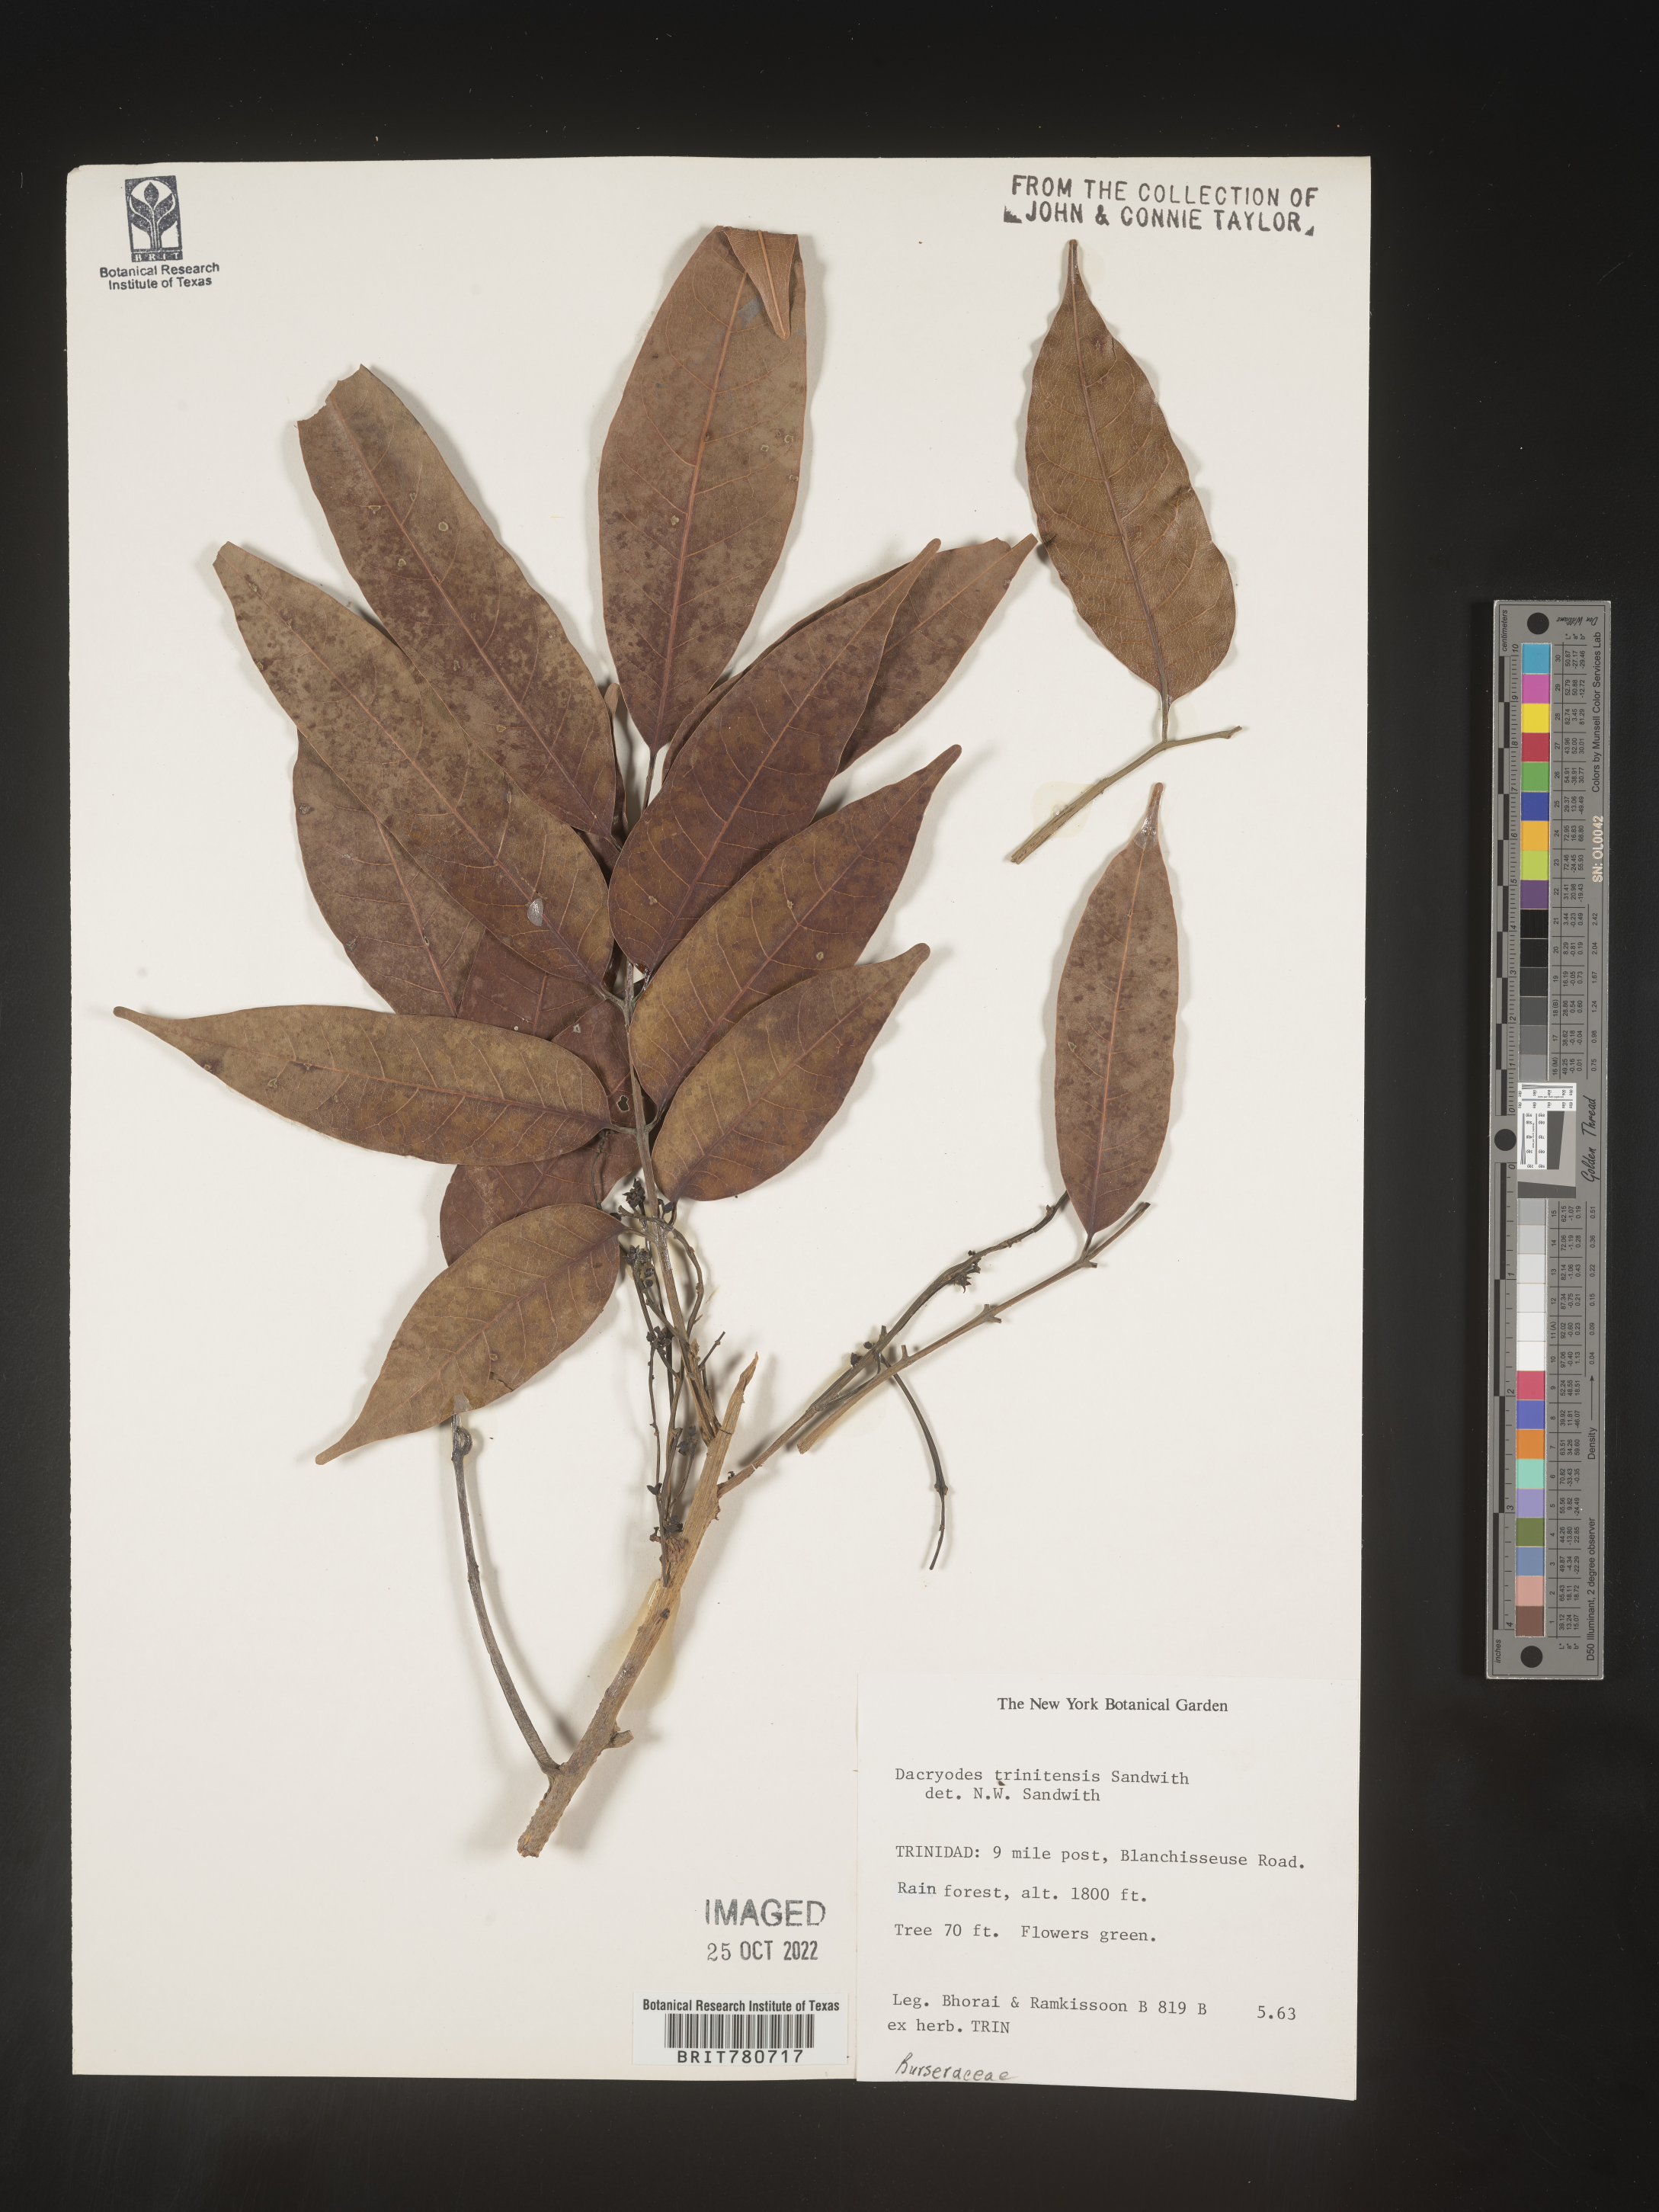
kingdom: Plantae
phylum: Tracheophyta
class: Magnoliopsida
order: Sapindales
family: Burseraceae
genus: Dacryodes
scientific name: Dacryodes
